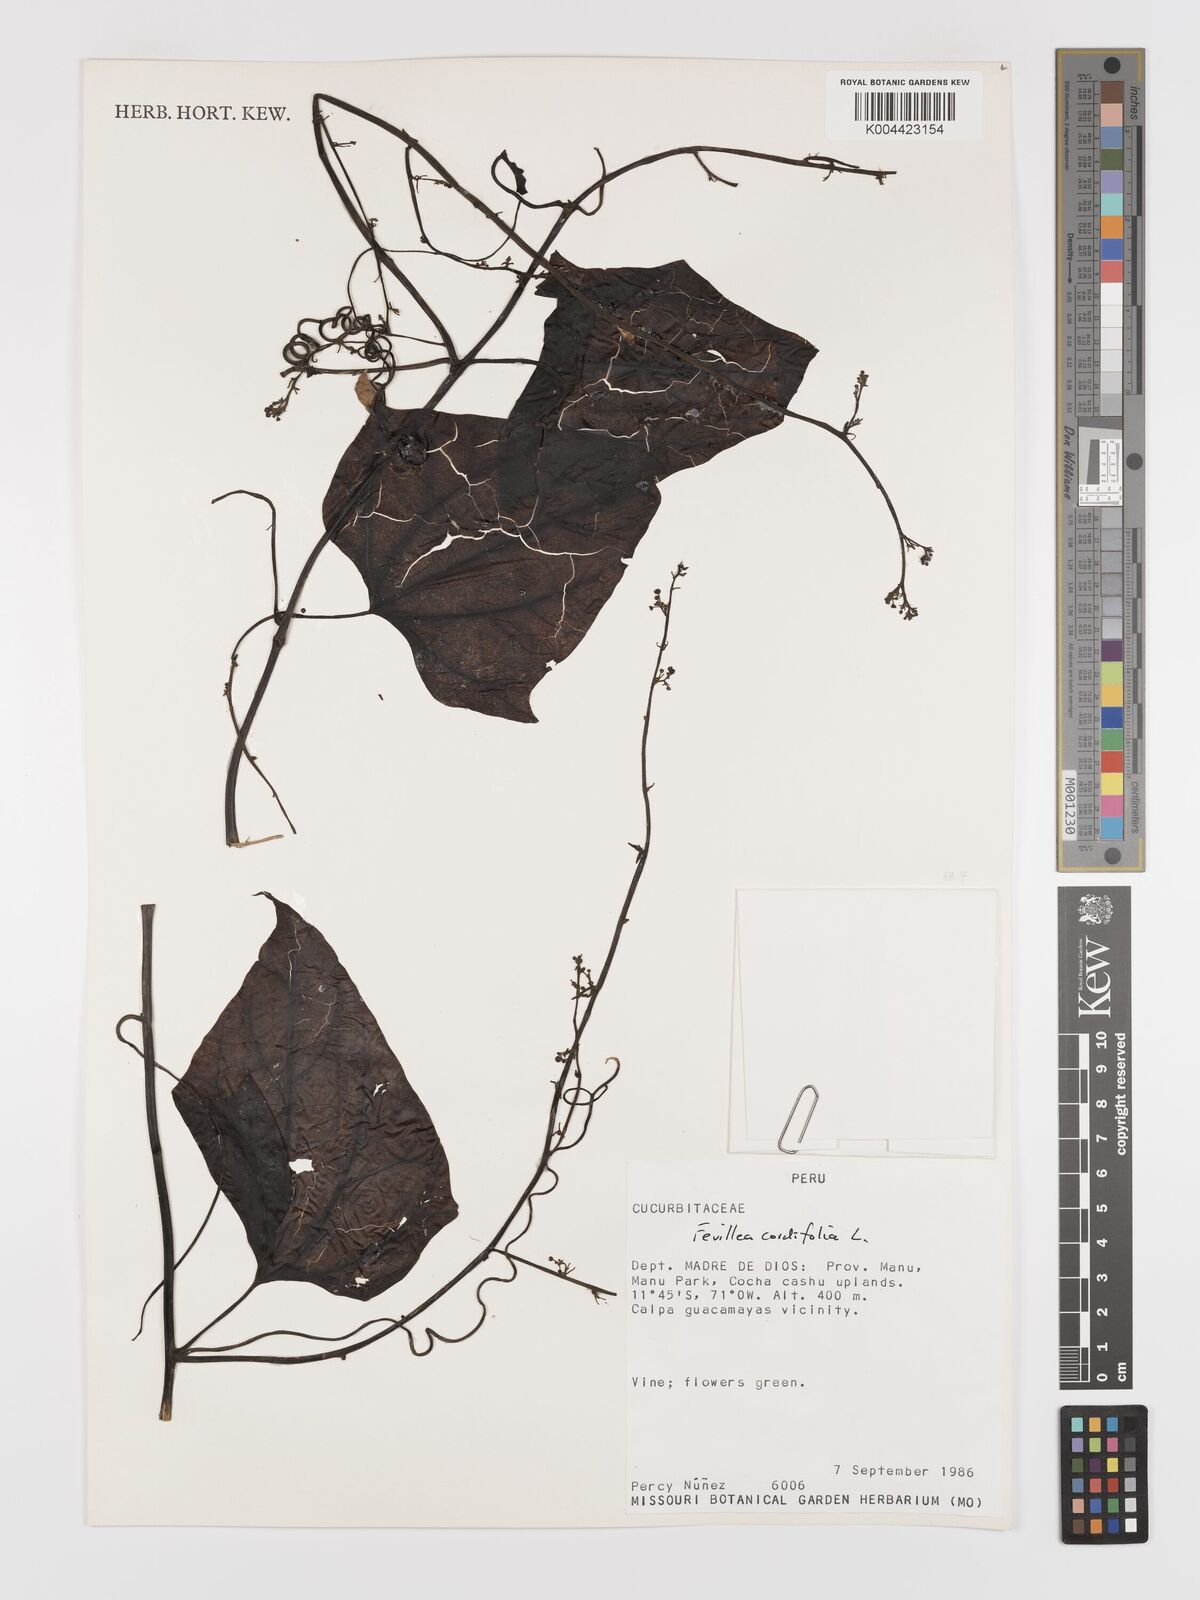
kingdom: Plantae
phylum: Tracheophyta
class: Magnoliopsida
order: Cucurbitales
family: Cucurbitaceae
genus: Fevillea
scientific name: Fevillea
